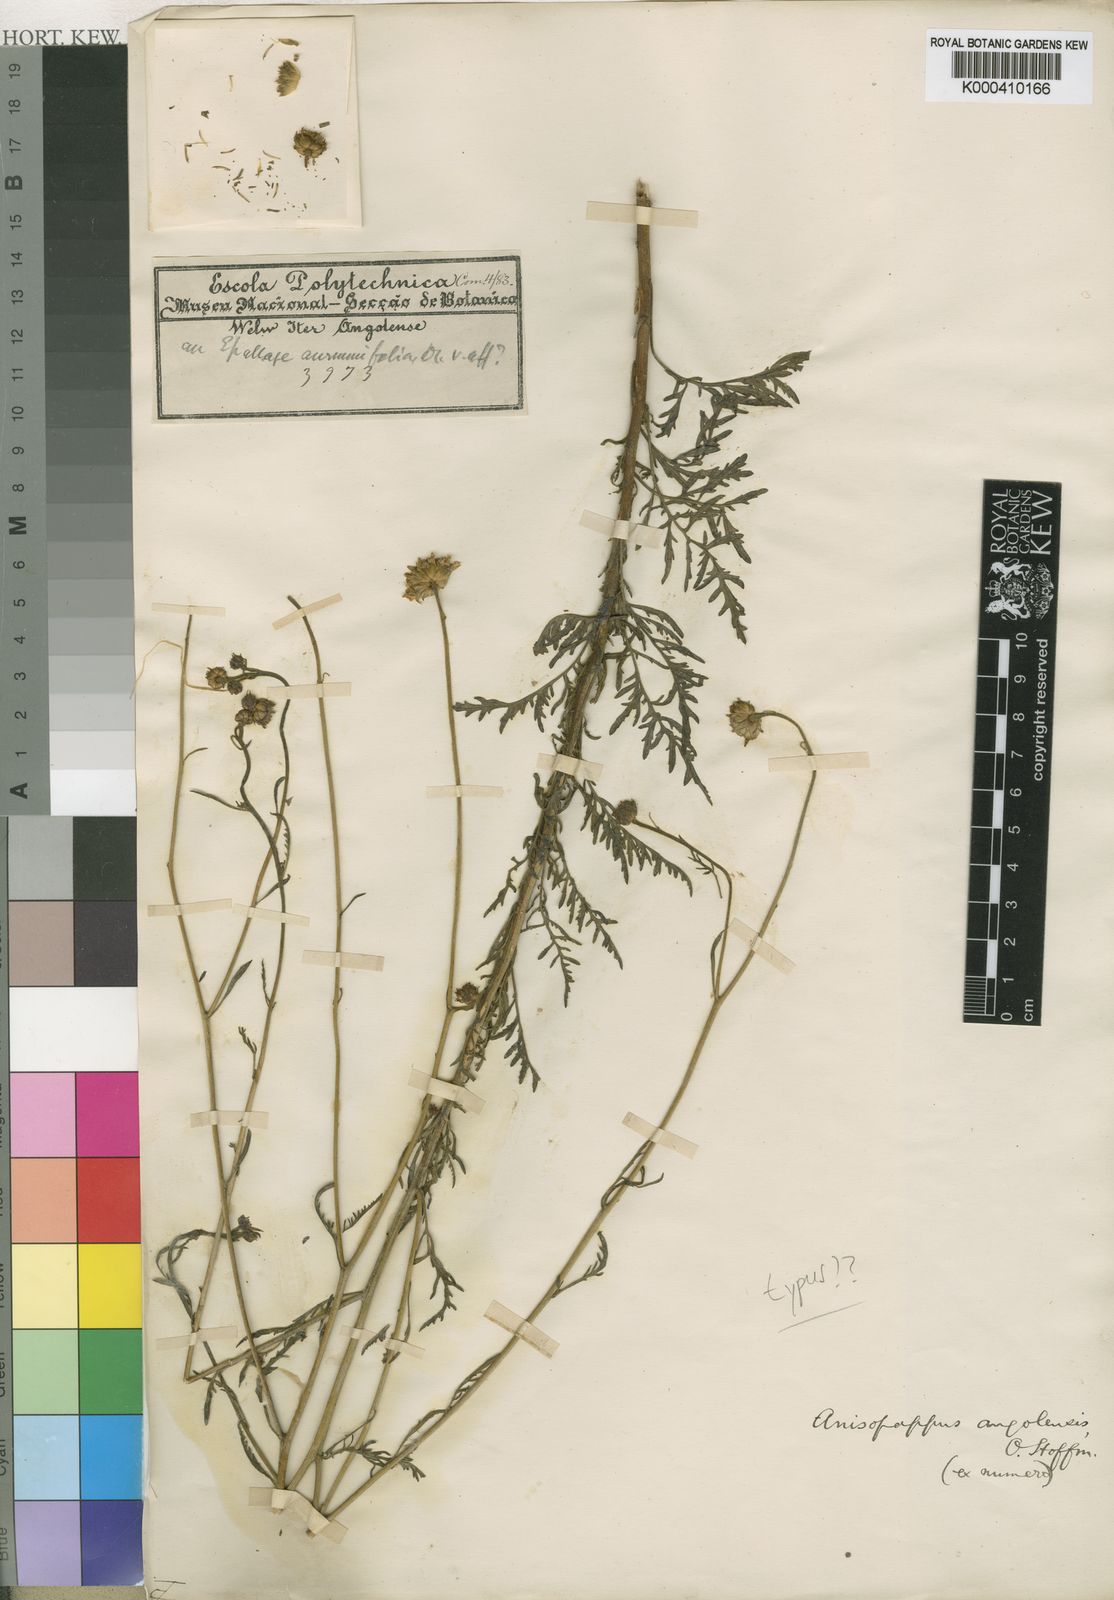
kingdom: Plantae
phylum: Tracheophyta
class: Magnoliopsida
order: Asterales
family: Asteraceae
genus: Anisopappus
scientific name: Anisopappus abercornensis
